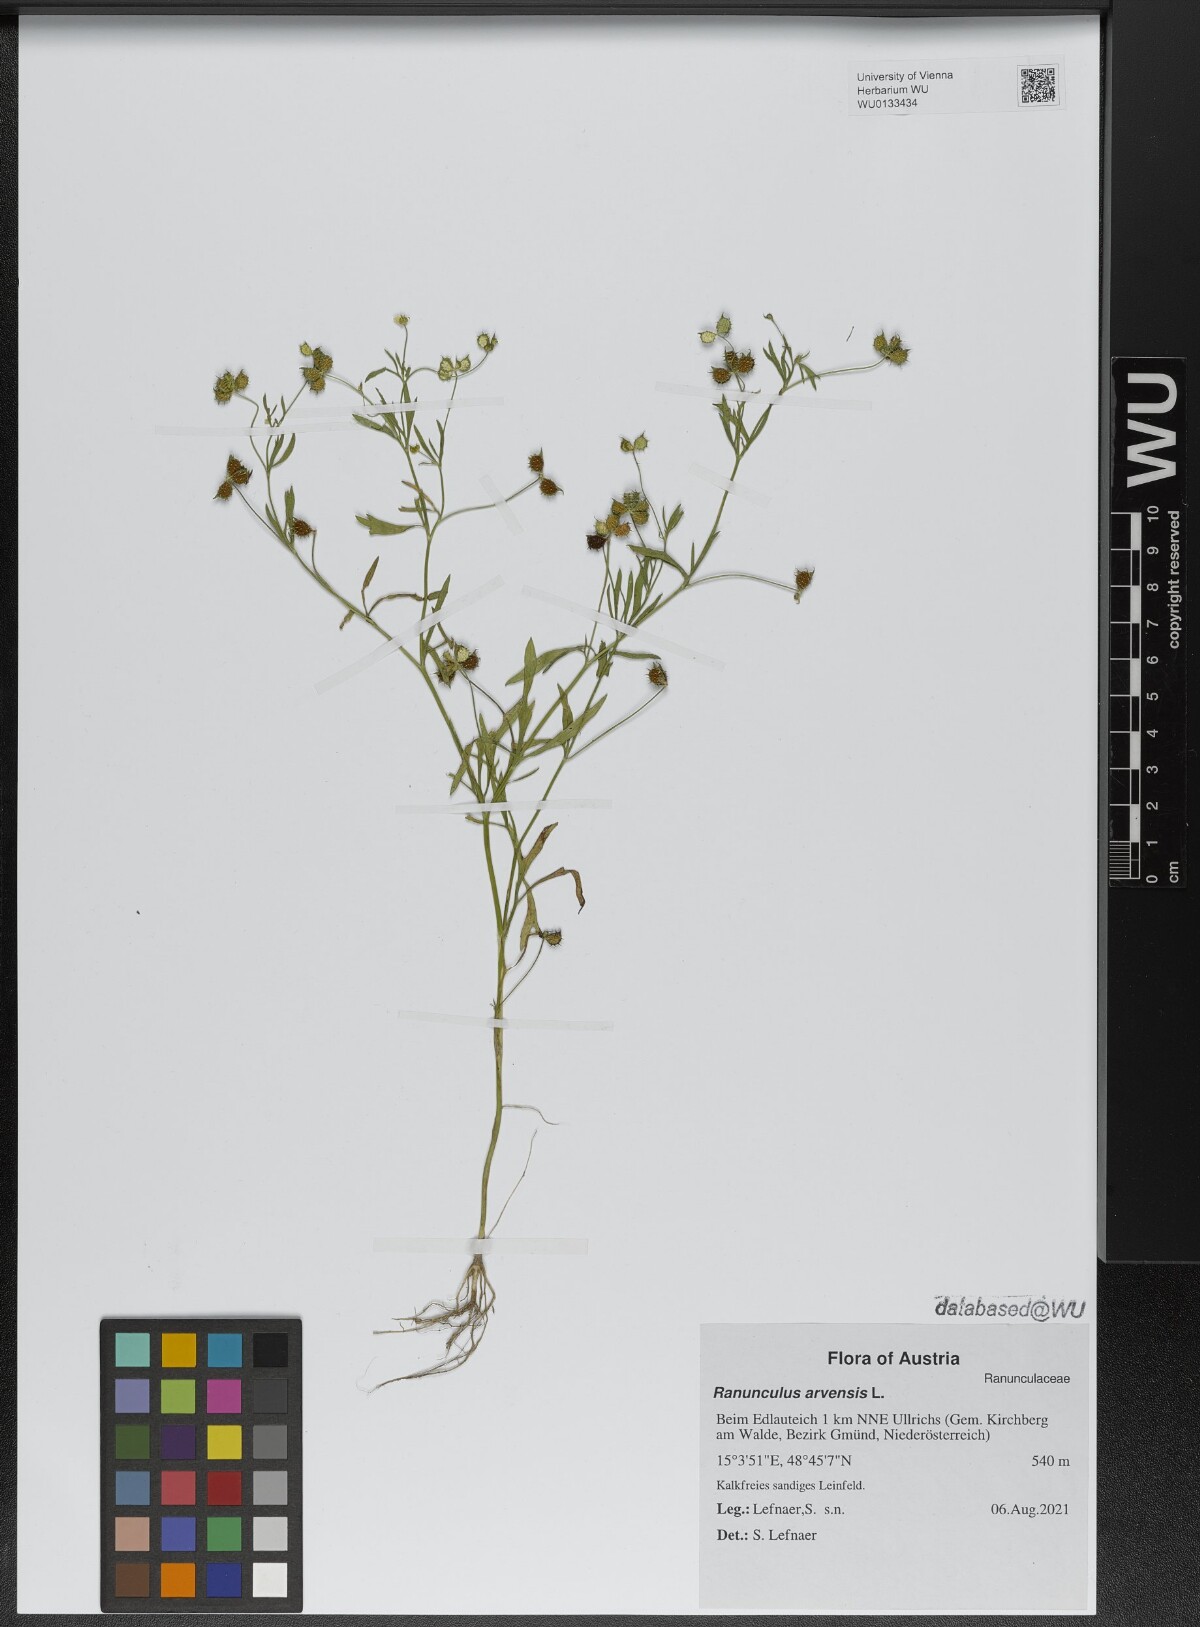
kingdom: Plantae
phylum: Tracheophyta
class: Magnoliopsida
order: Ranunculales
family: Ranunculaceae
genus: Ranunculus
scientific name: Ranunculus arvensis
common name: Corn buttercup
